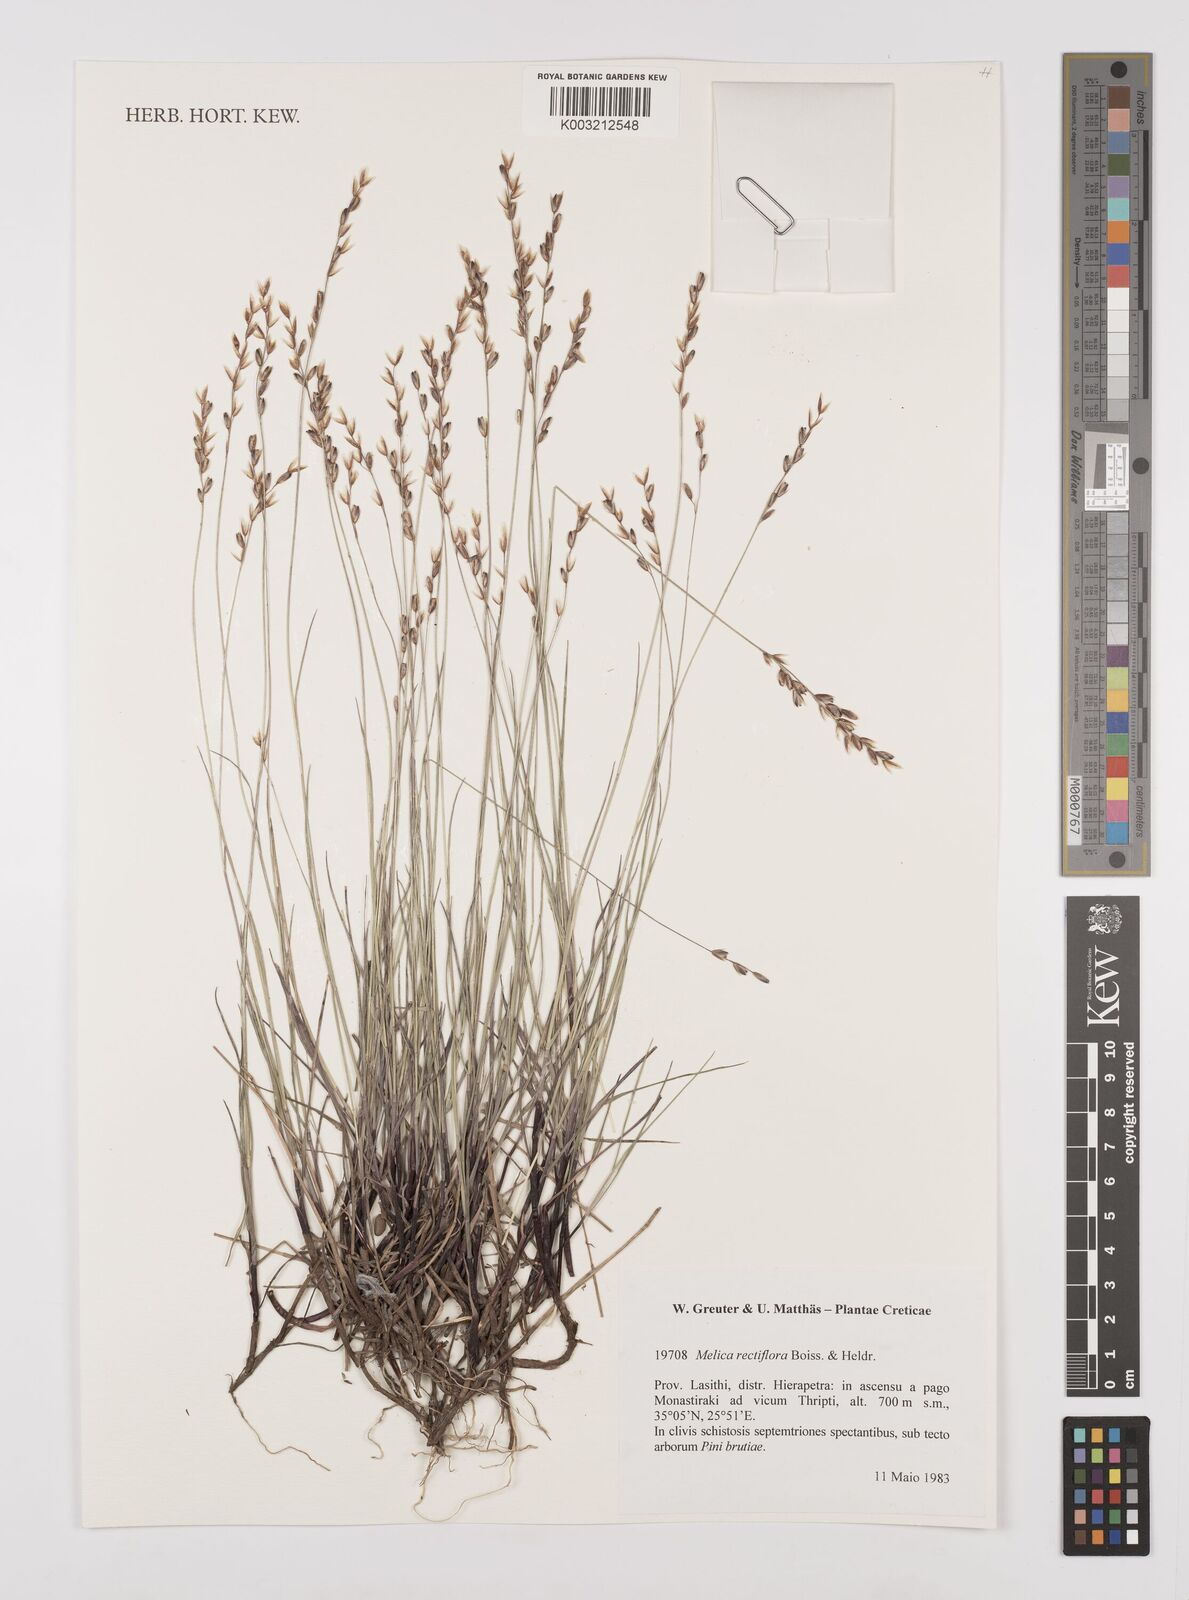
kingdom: Plantae
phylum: Tracheophyta
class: Liliopsida
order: Poales
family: Poaceae
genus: Melica
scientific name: Melica rectiflora
